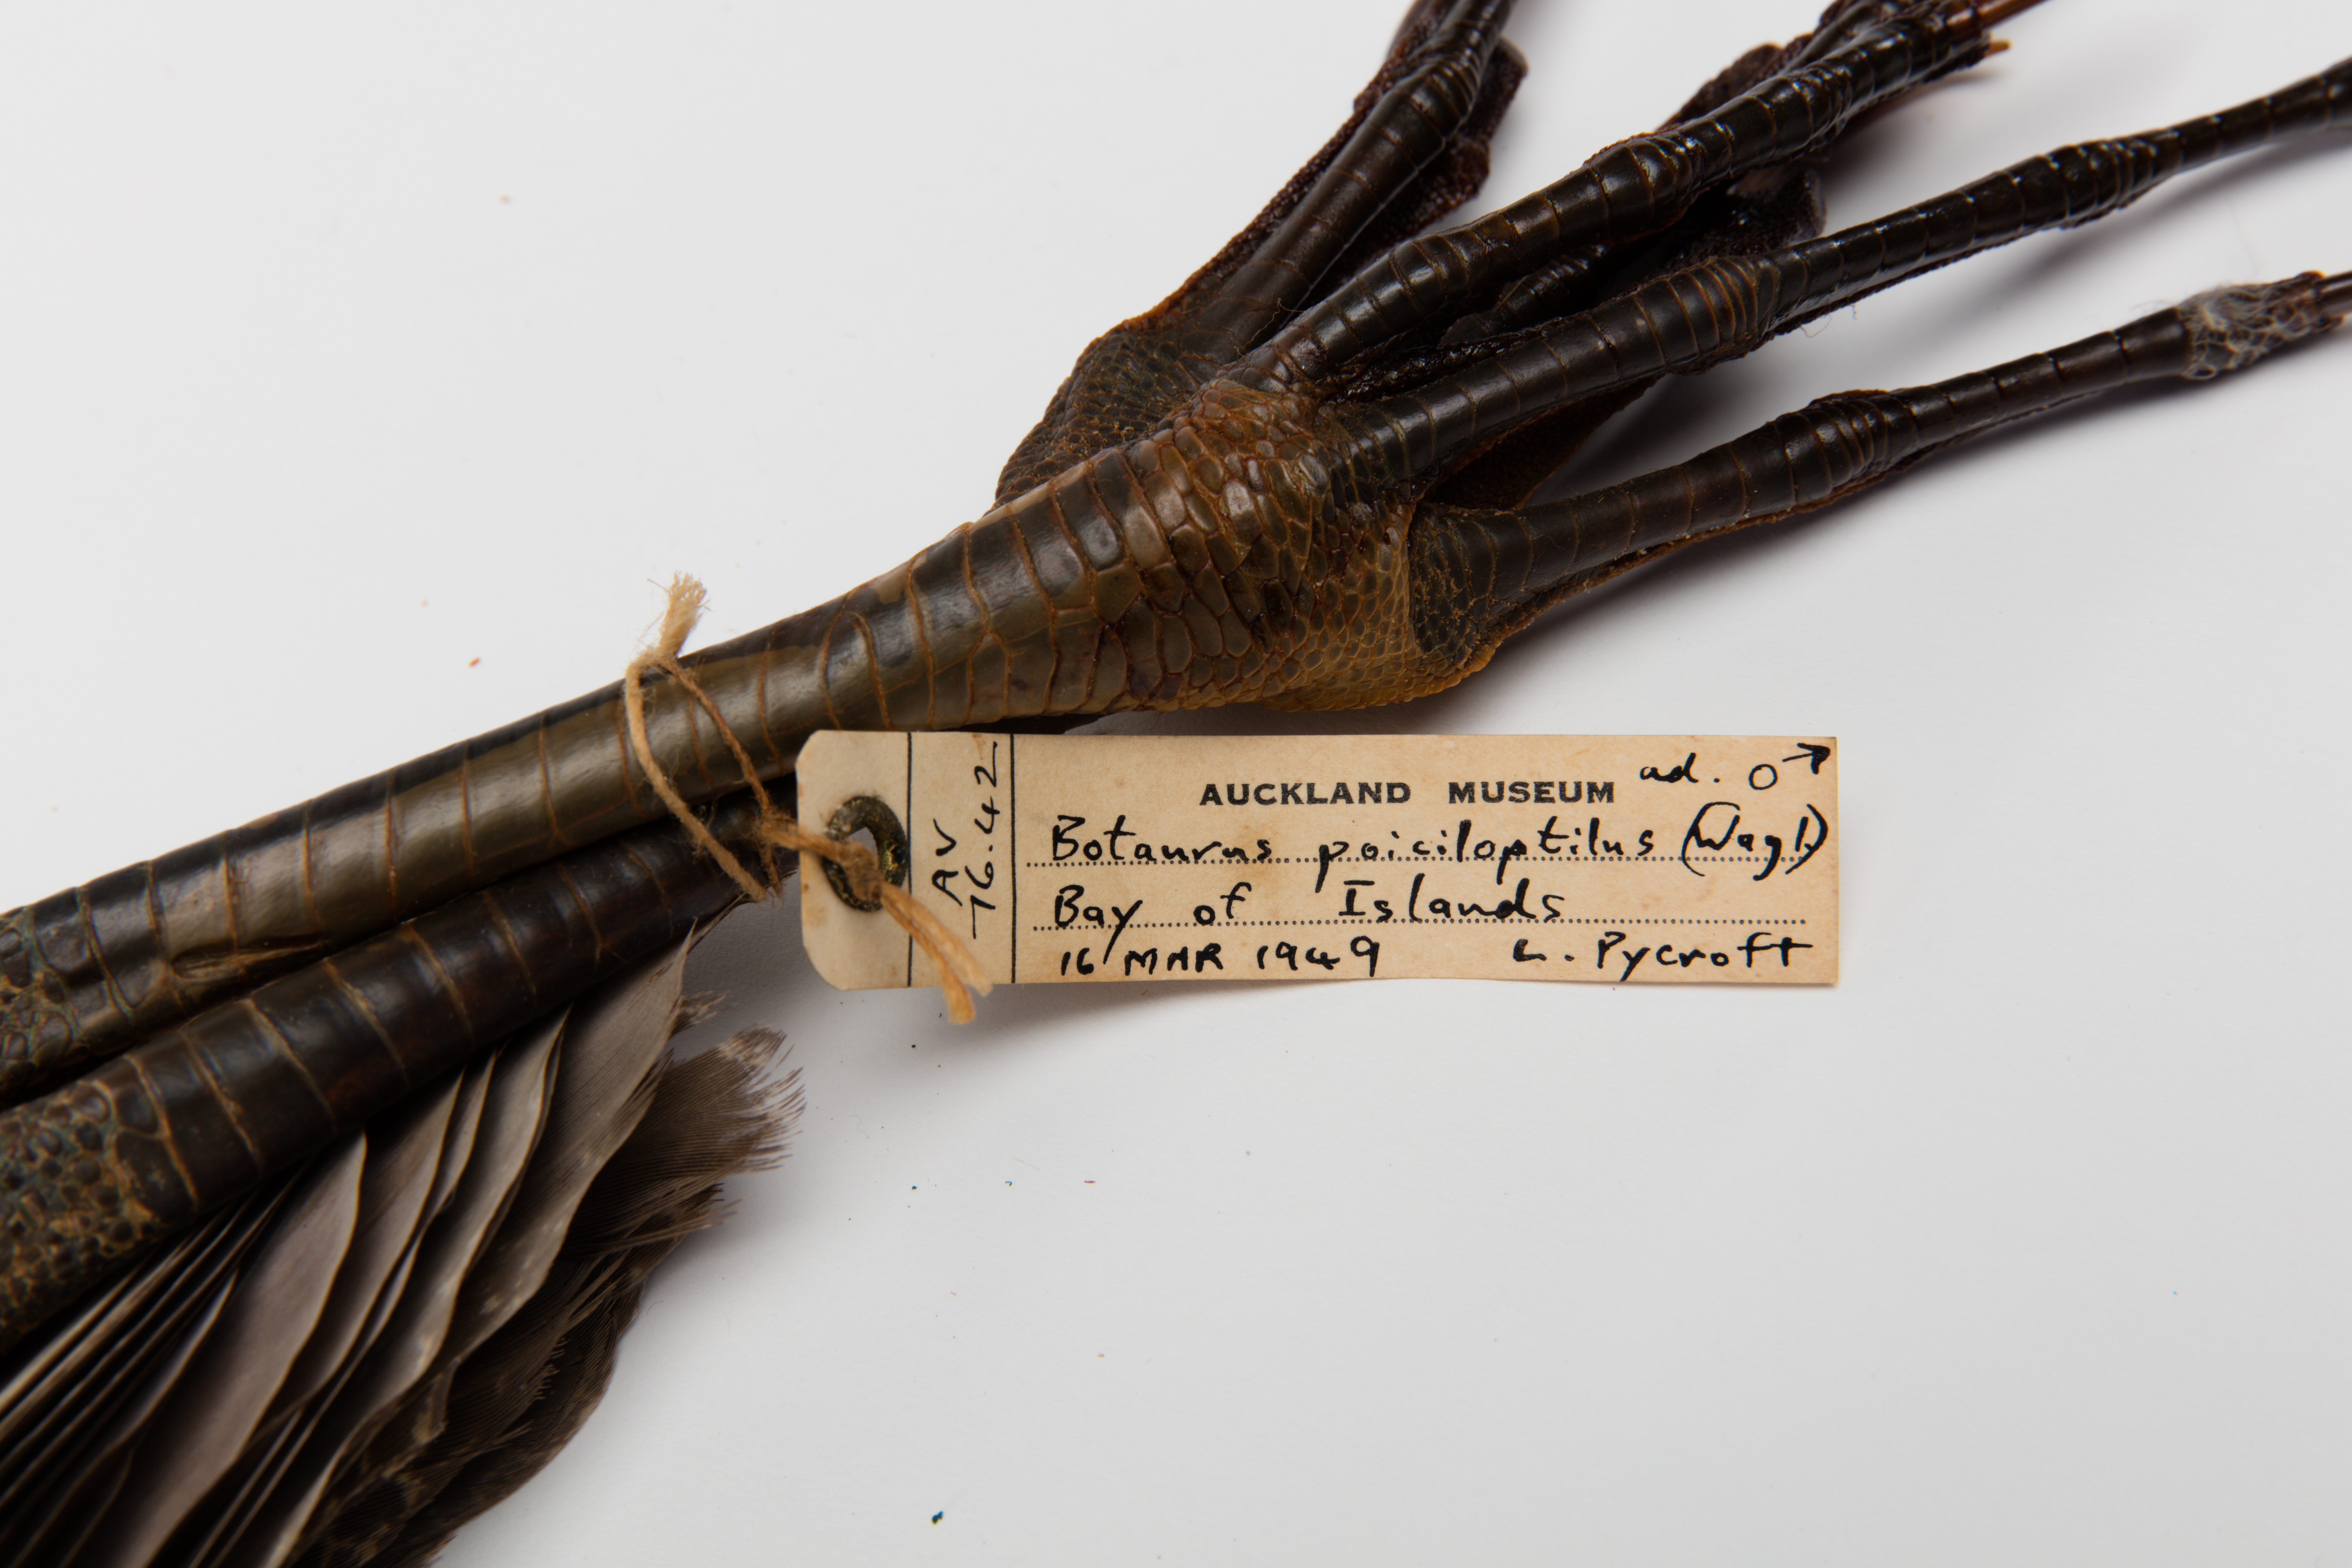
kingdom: Animalia
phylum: Chordata
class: Aves
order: Pelecaniformes
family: Ardeidae
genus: Botaurus
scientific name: Botaurus poiciloptilus
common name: Australasian bittern
